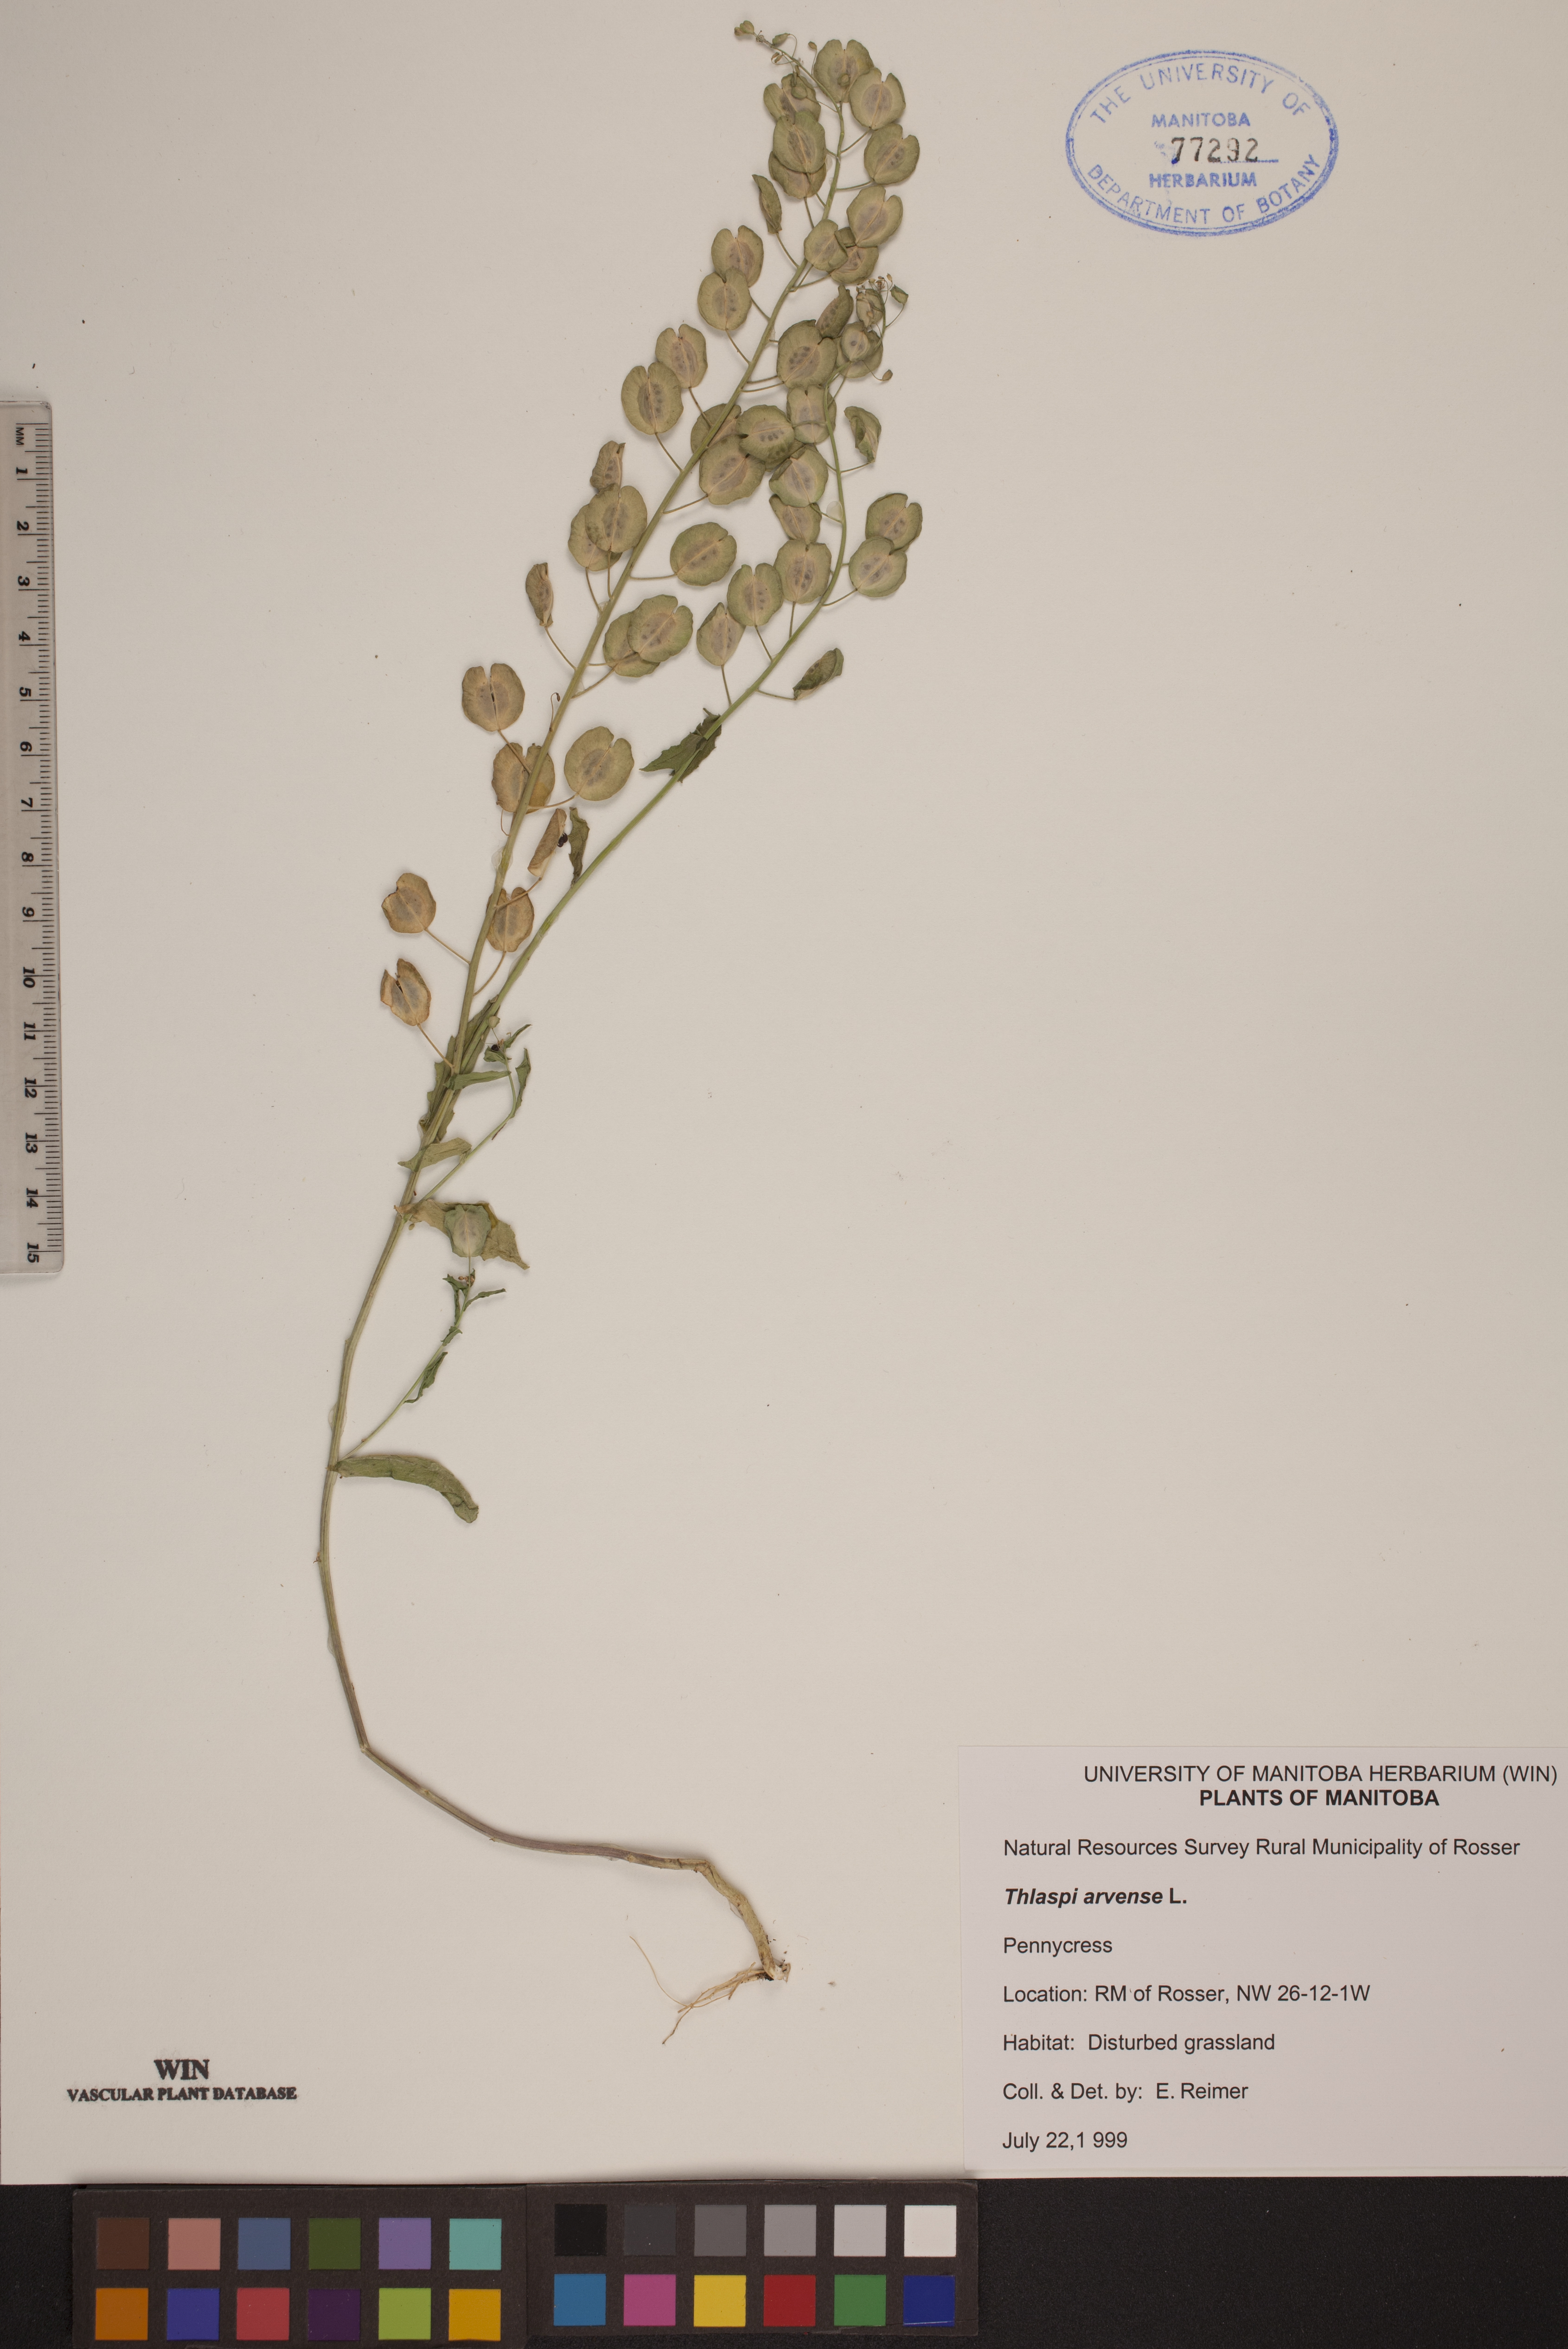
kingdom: Plantae
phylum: Tracheophyta
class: Magnoliopsida
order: Brassicales
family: Brassicaceae
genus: Thlaspi
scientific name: Thlaspi arvense
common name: Field pennycress
